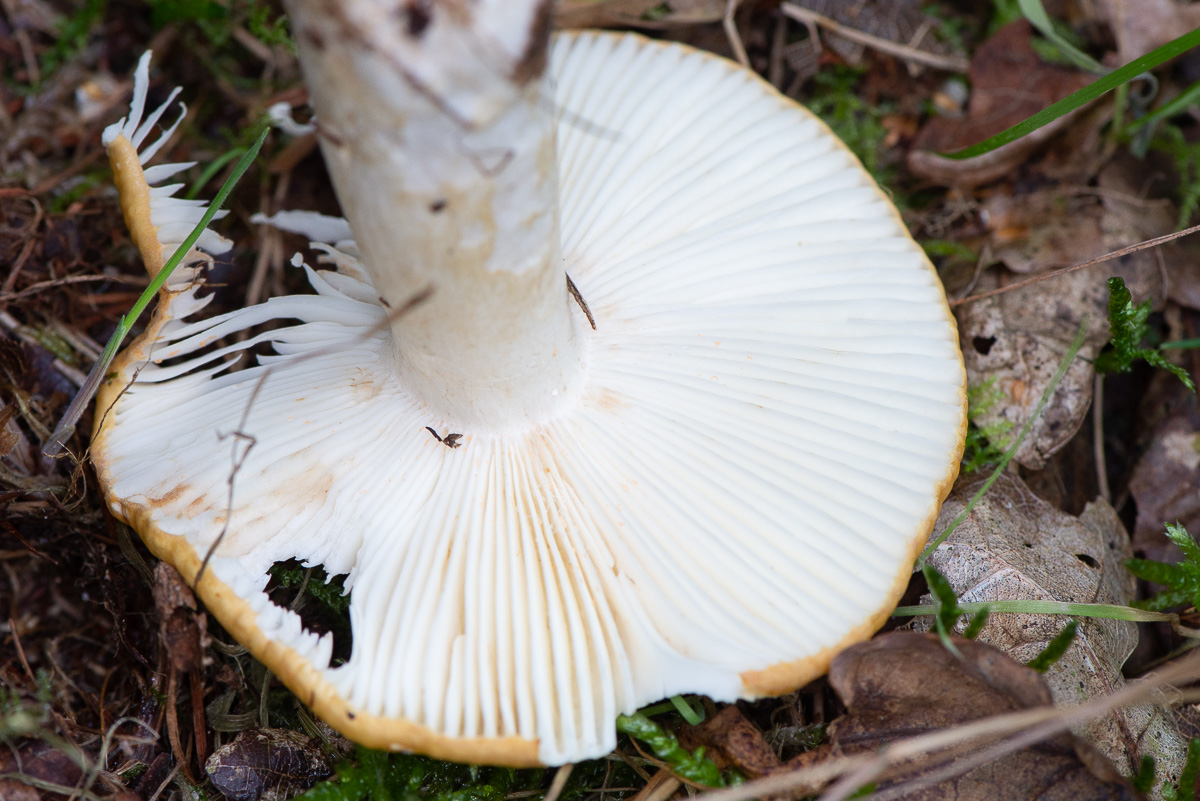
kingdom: Fungi
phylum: Basidiomycota
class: Agaricomycetes
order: Russulales
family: Russulaceae
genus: Russula
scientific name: Russula ochroleuca
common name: okkergul skørhat
